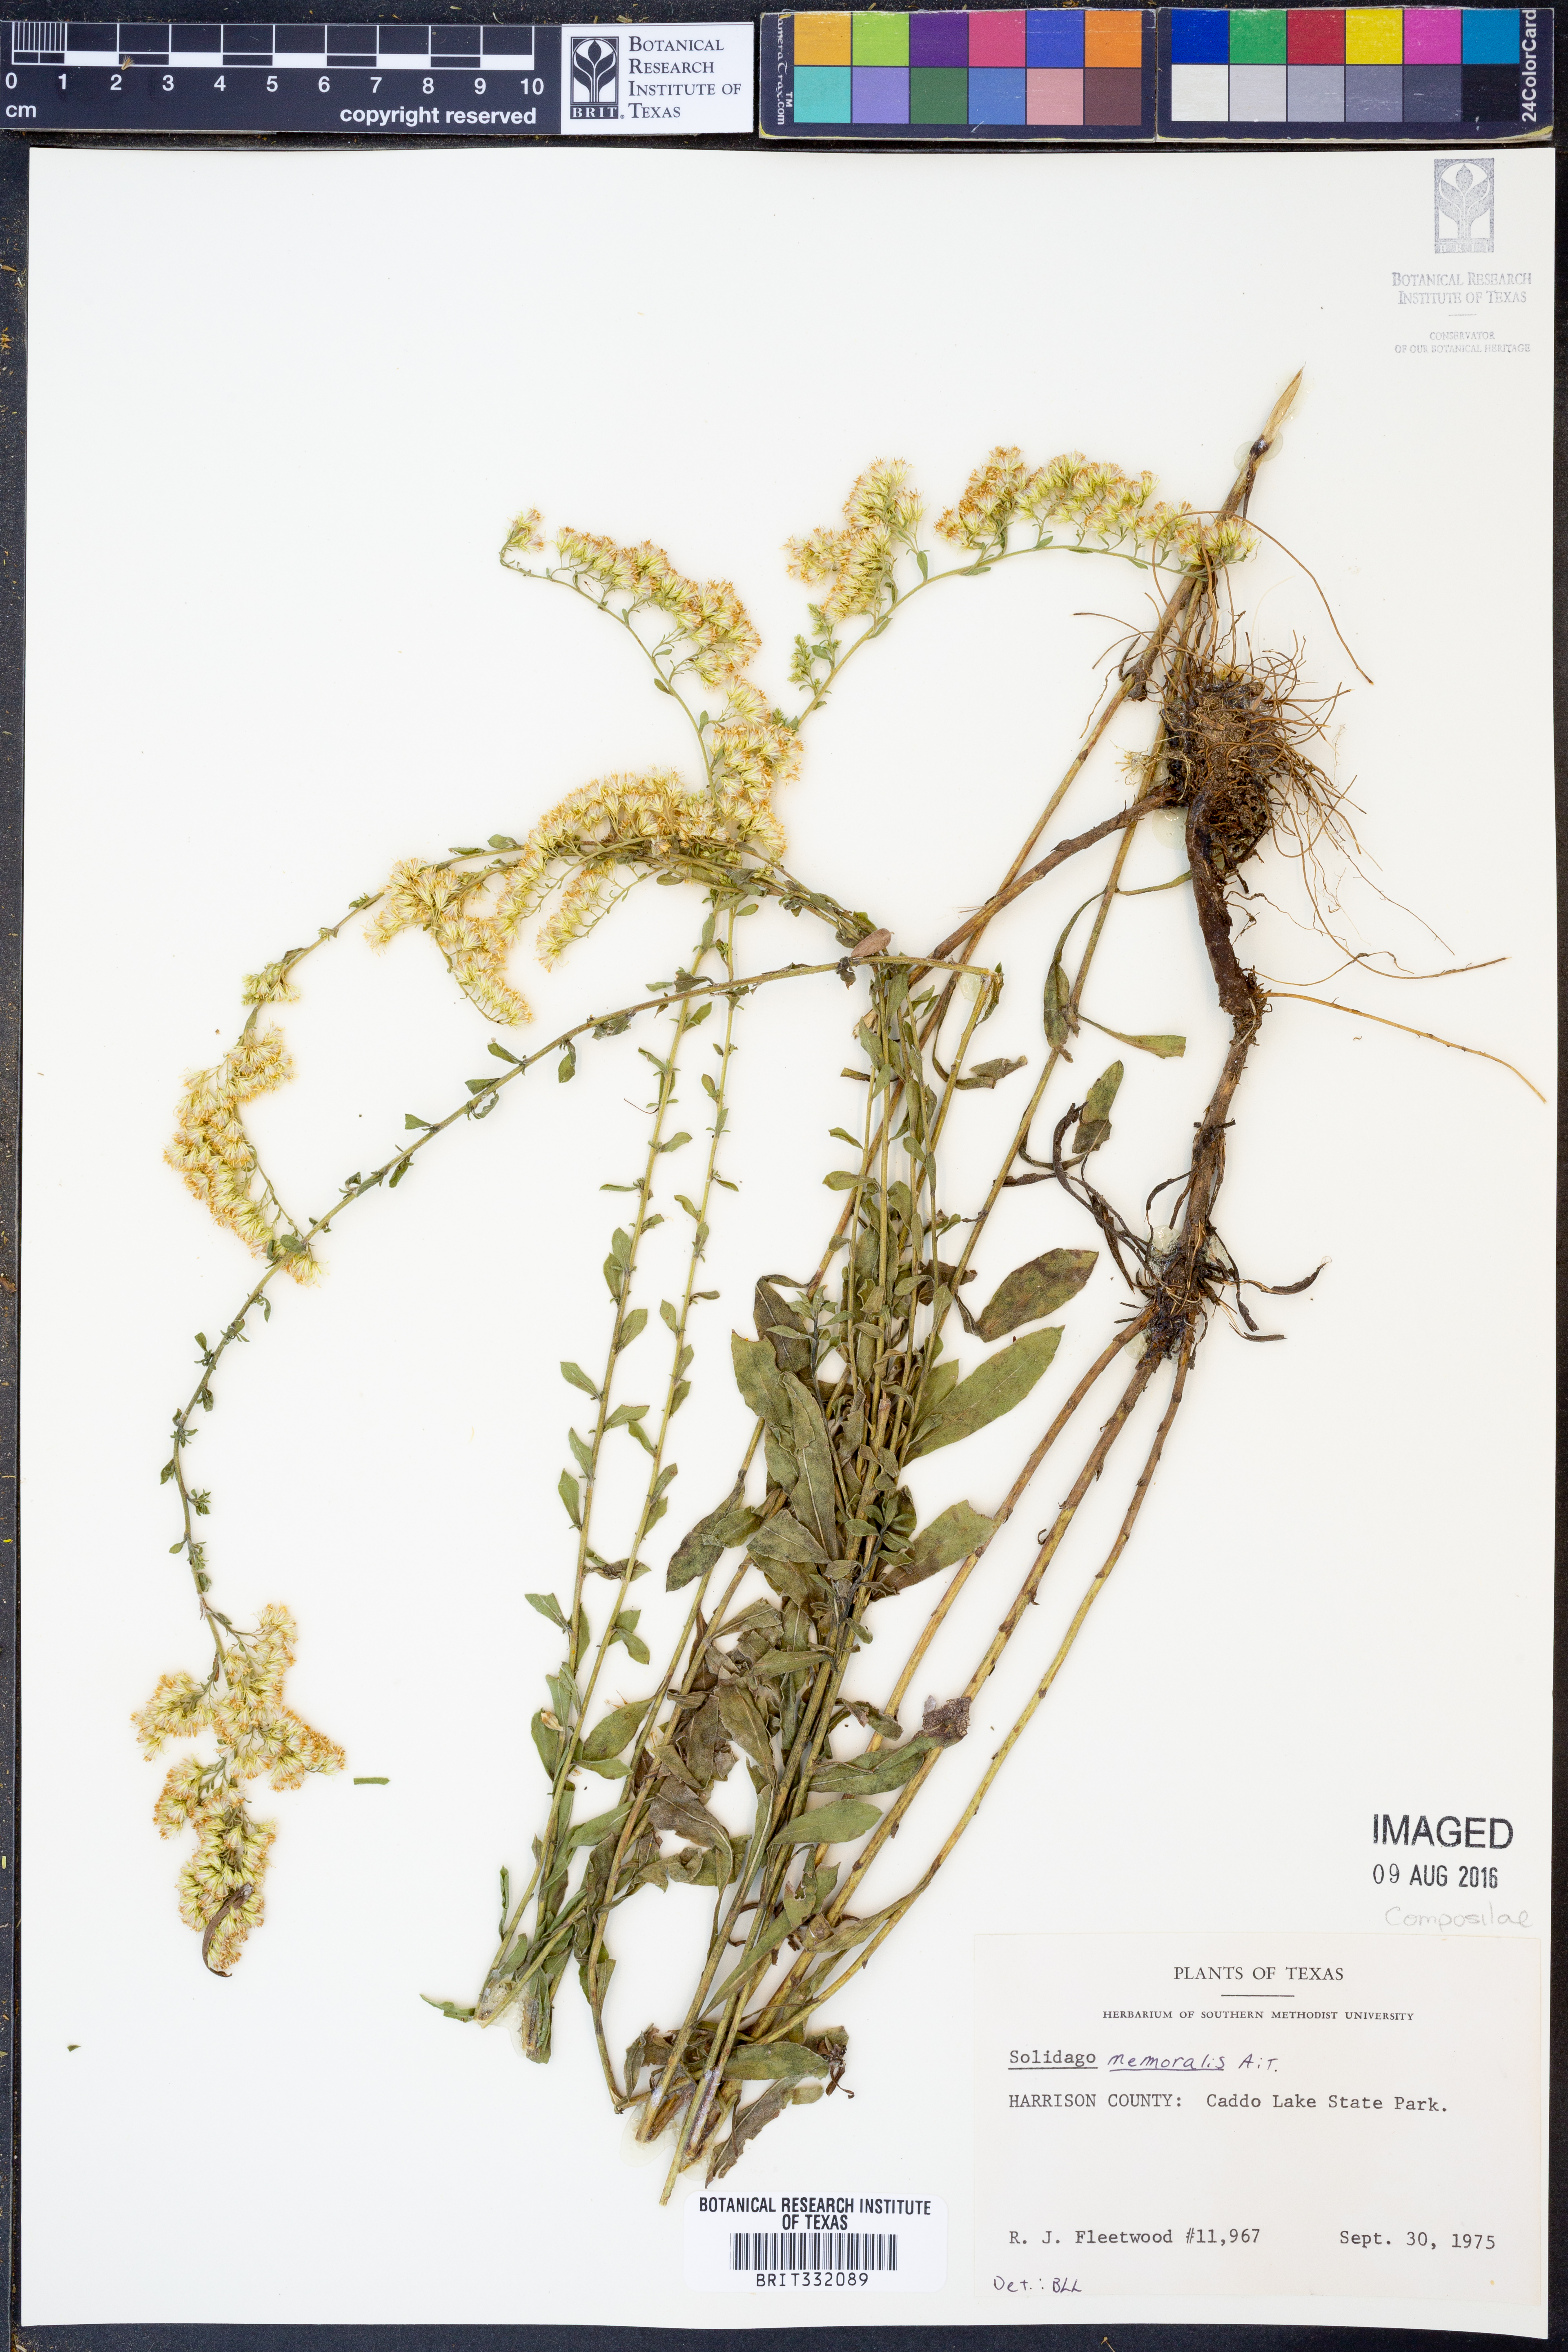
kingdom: Plantae
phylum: Tracheophyta
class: Magnoliopsida
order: Asterales
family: Asteraceae
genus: Solidago
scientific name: Solidago nemoralis
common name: Grey goldenrod
